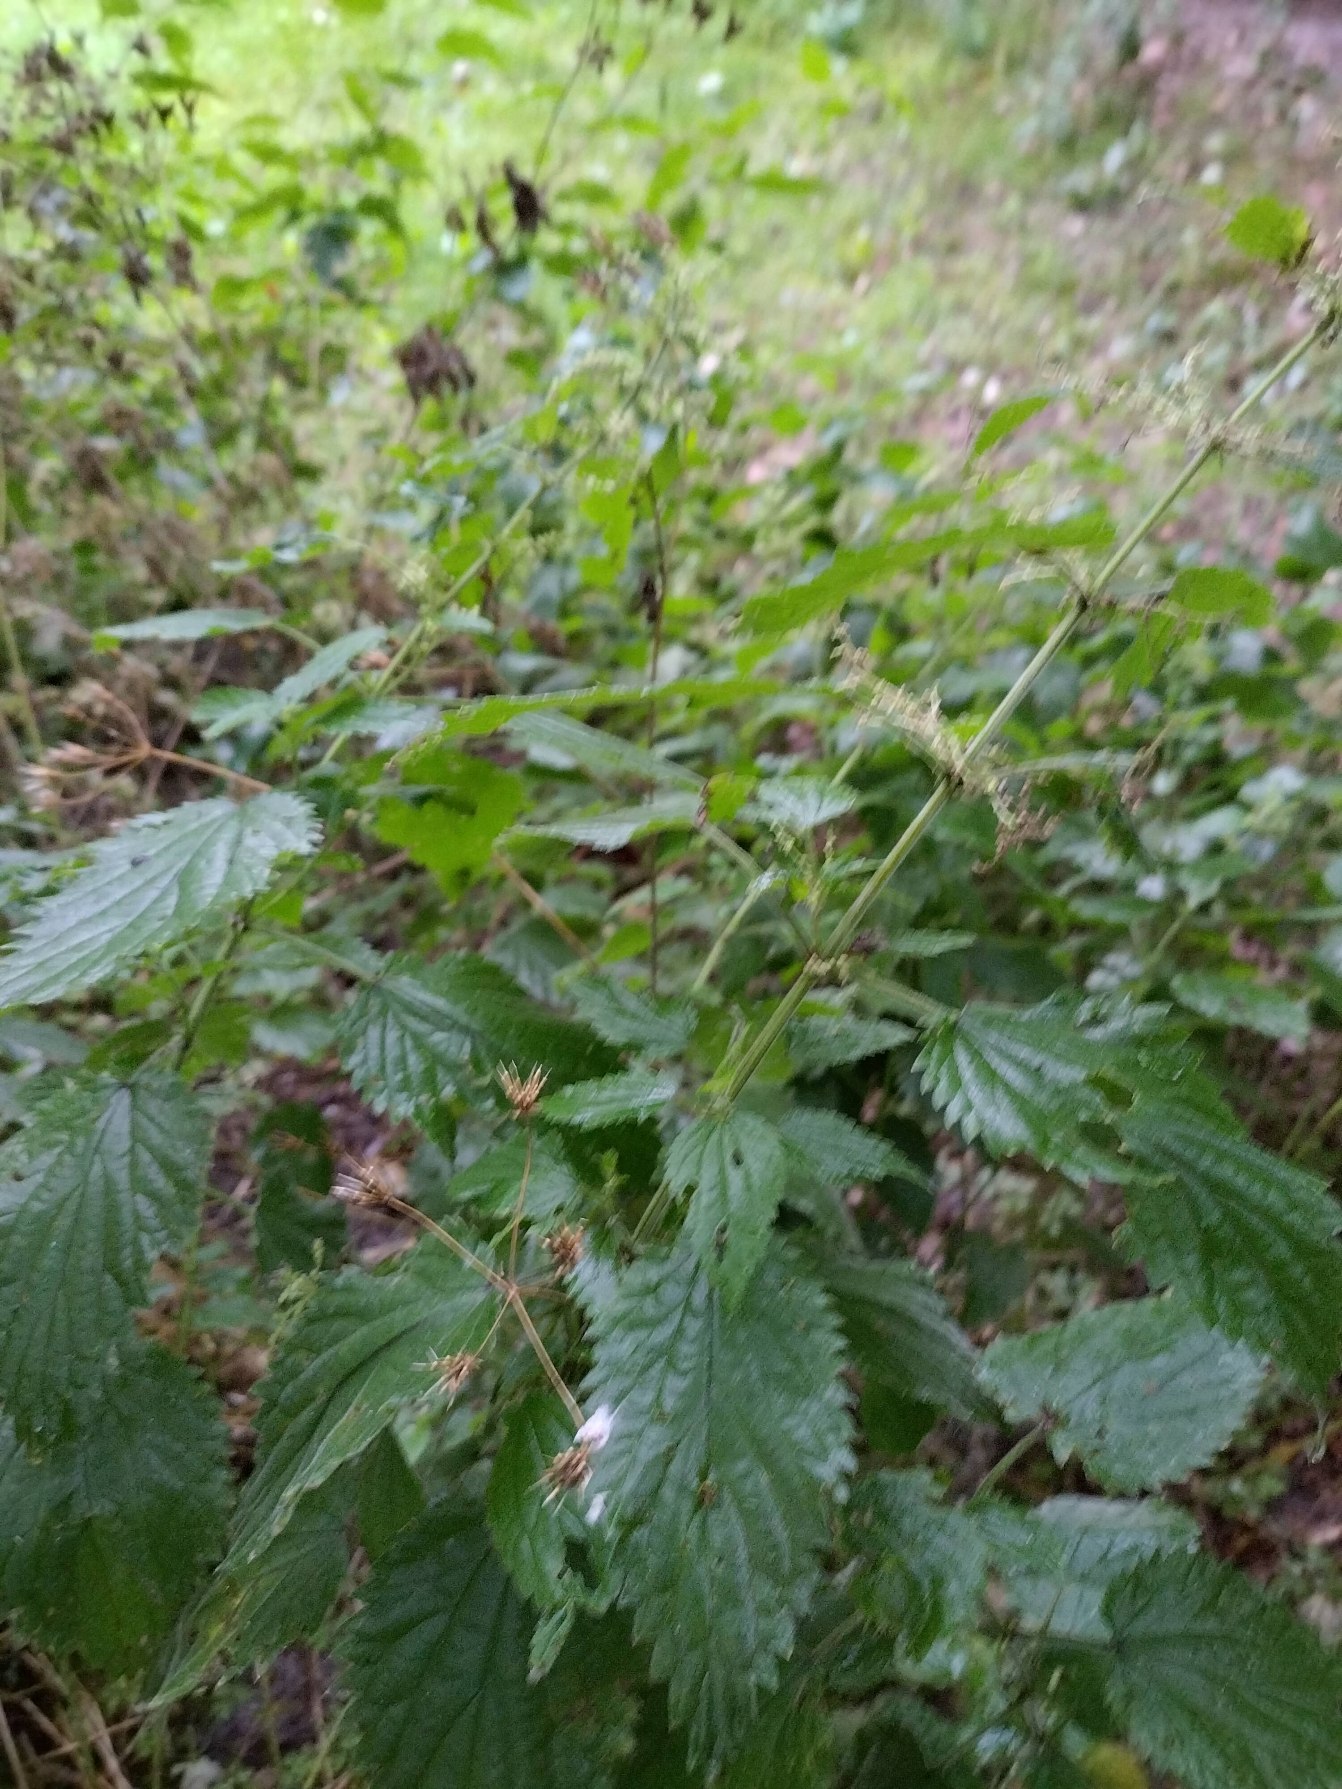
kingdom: Plantae
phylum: Tracheophyta
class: Magnoliopsida
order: Rosales
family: Urticaceae
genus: Urtica
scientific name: Urtica dioica
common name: Stor nælde
